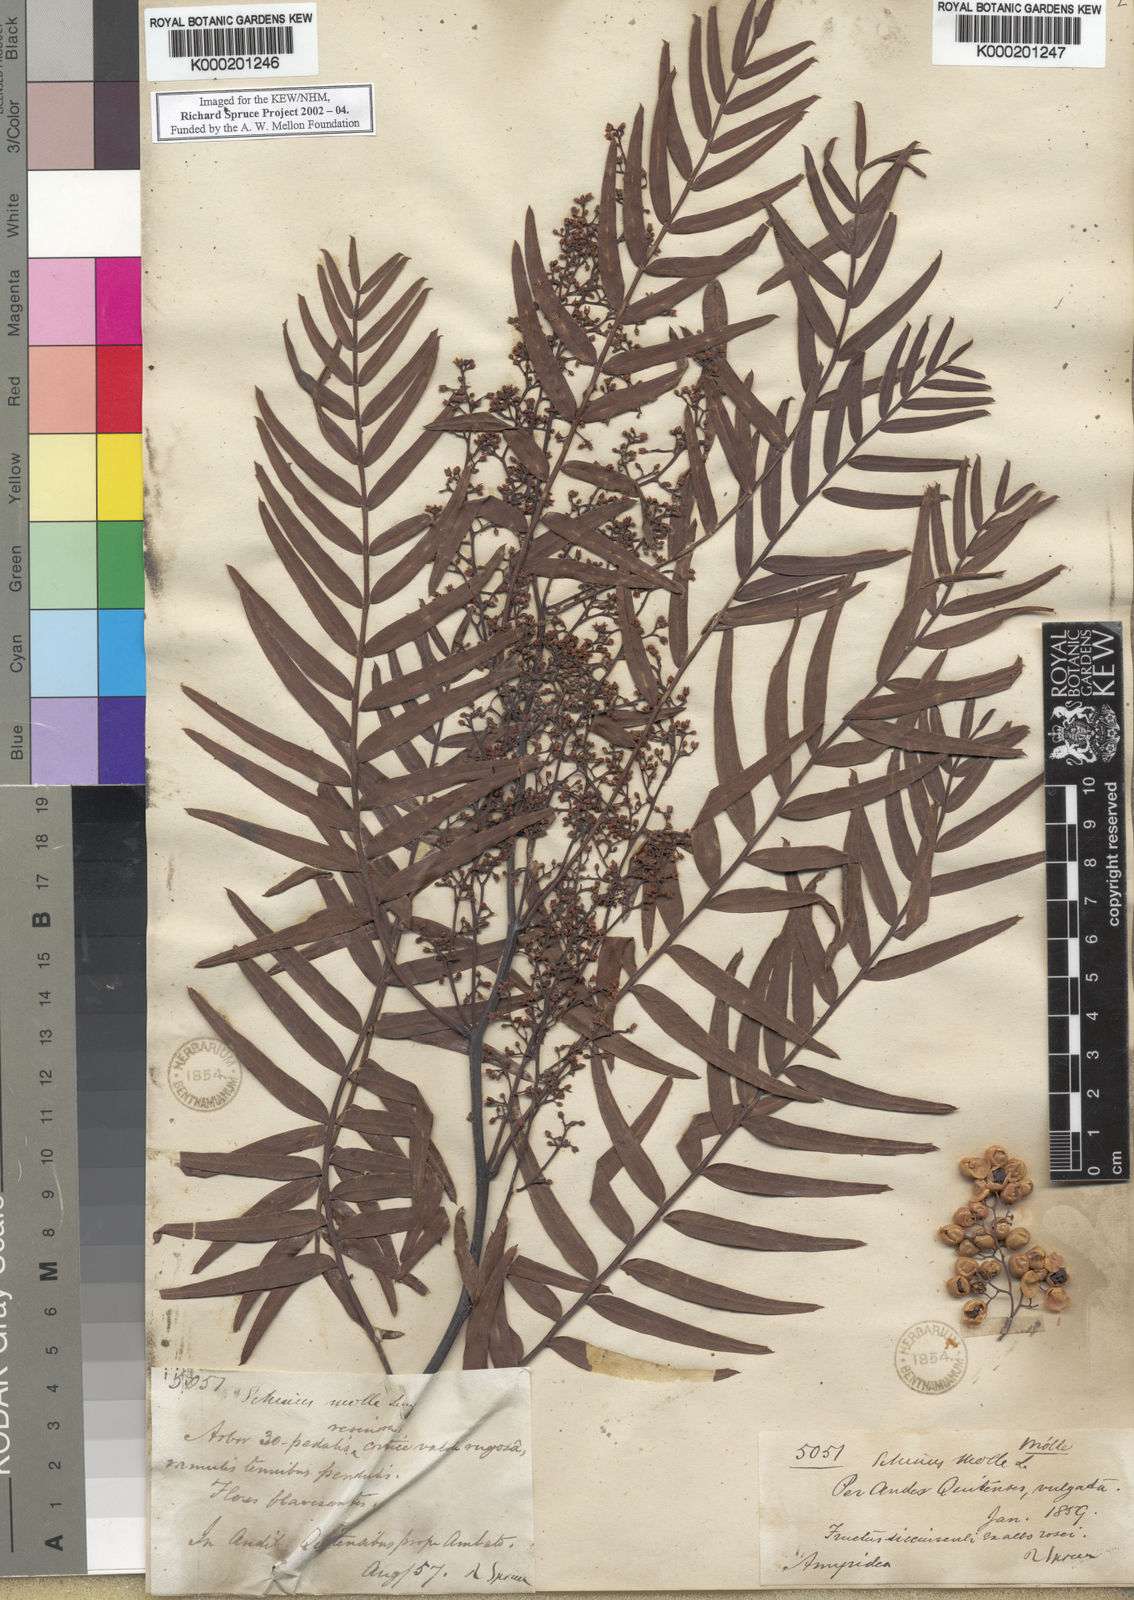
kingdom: Plantae
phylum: Tracheophyta
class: Magnoliopsida
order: Sapindales
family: Anacardiaceae
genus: Schinus
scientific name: Schinus molle
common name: Peruvian peppertree
